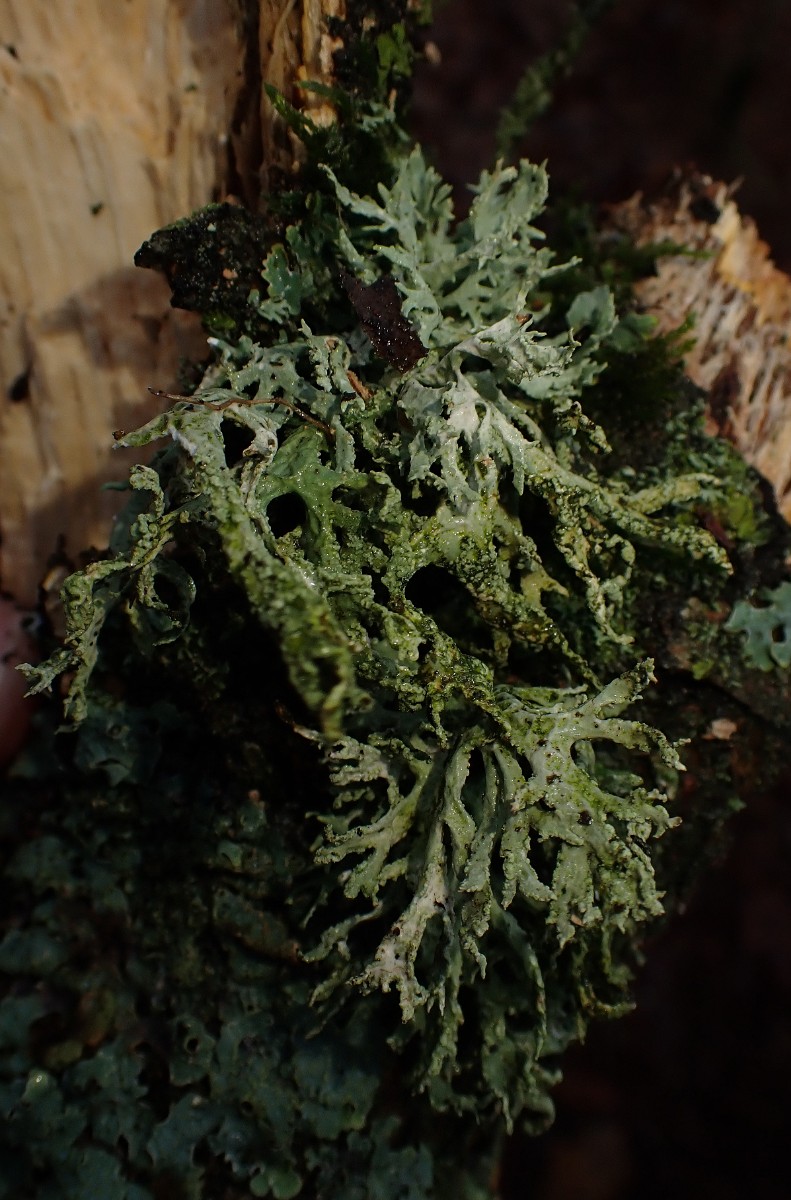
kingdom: Fungi
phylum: Ascomycota
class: Lecanoromycetes
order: Lecanorales
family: Parmeliaceae
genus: Evernia
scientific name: Evernia prunastri
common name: almindelig slåenlav
